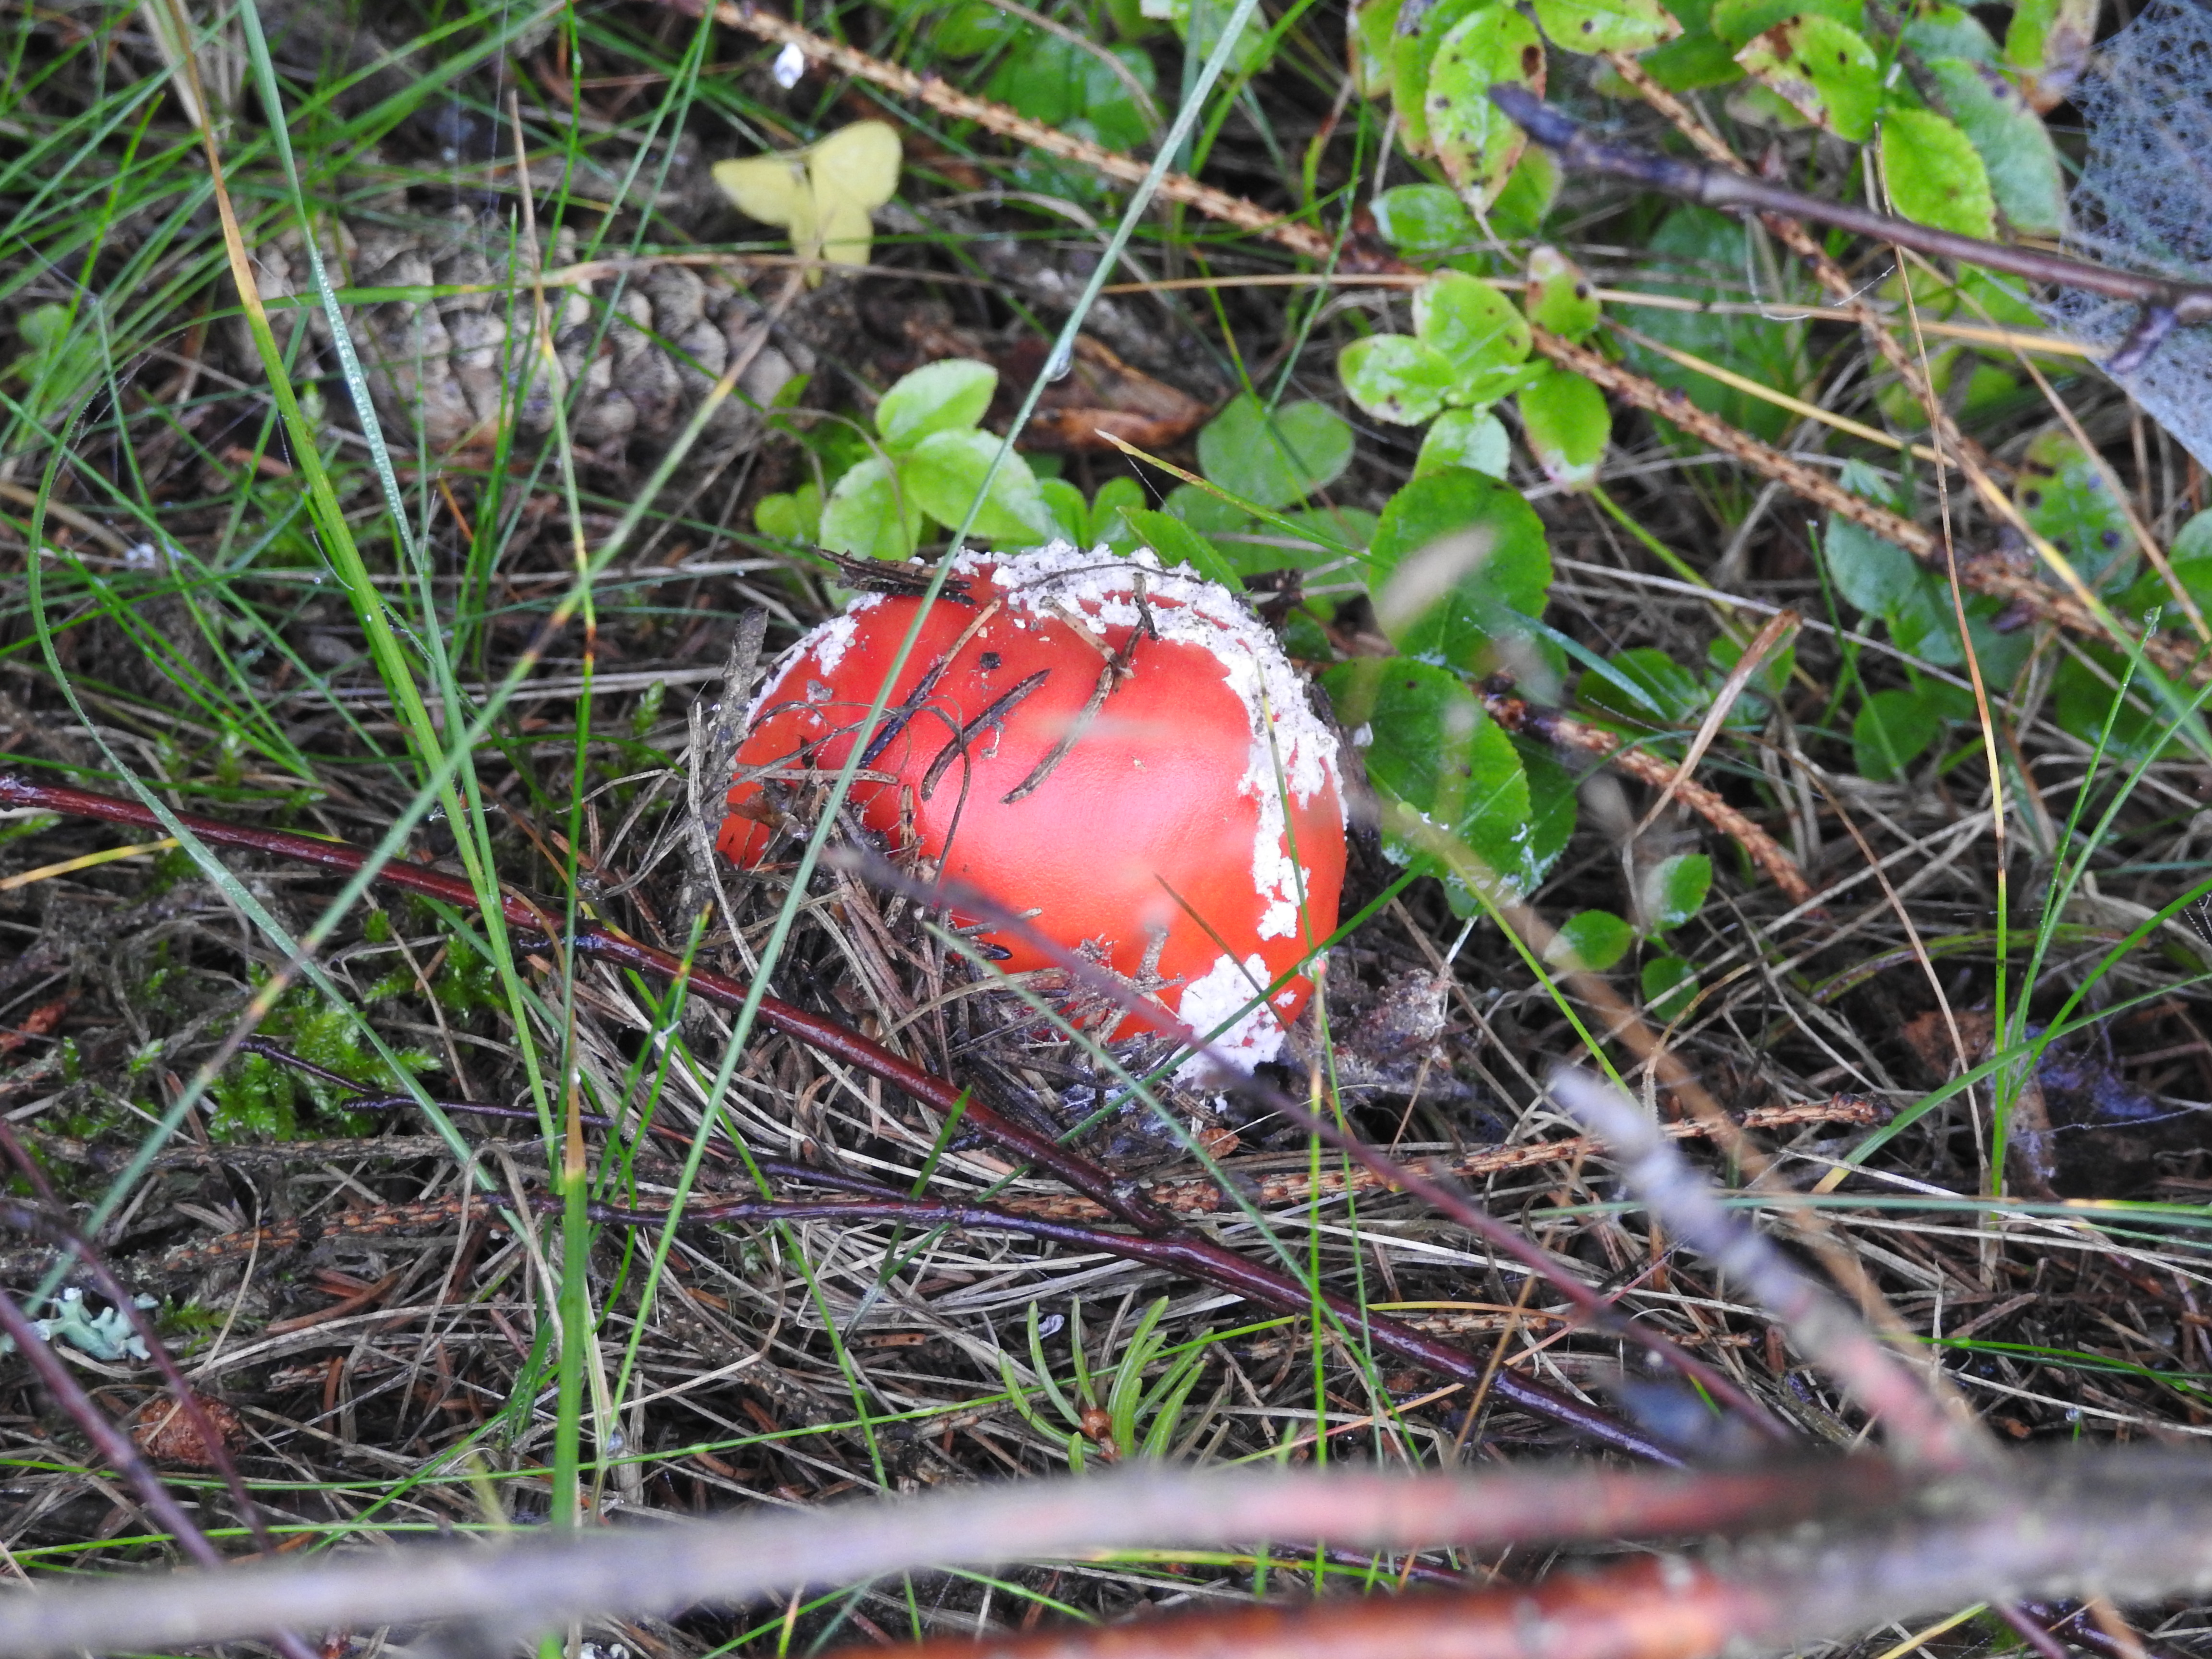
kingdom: Fungi
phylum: Basidiomycota
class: Agaricomycetes
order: Agaricales
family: Amanitaceae
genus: Amanita
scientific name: Amanita muscaria
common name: Fly agaric
